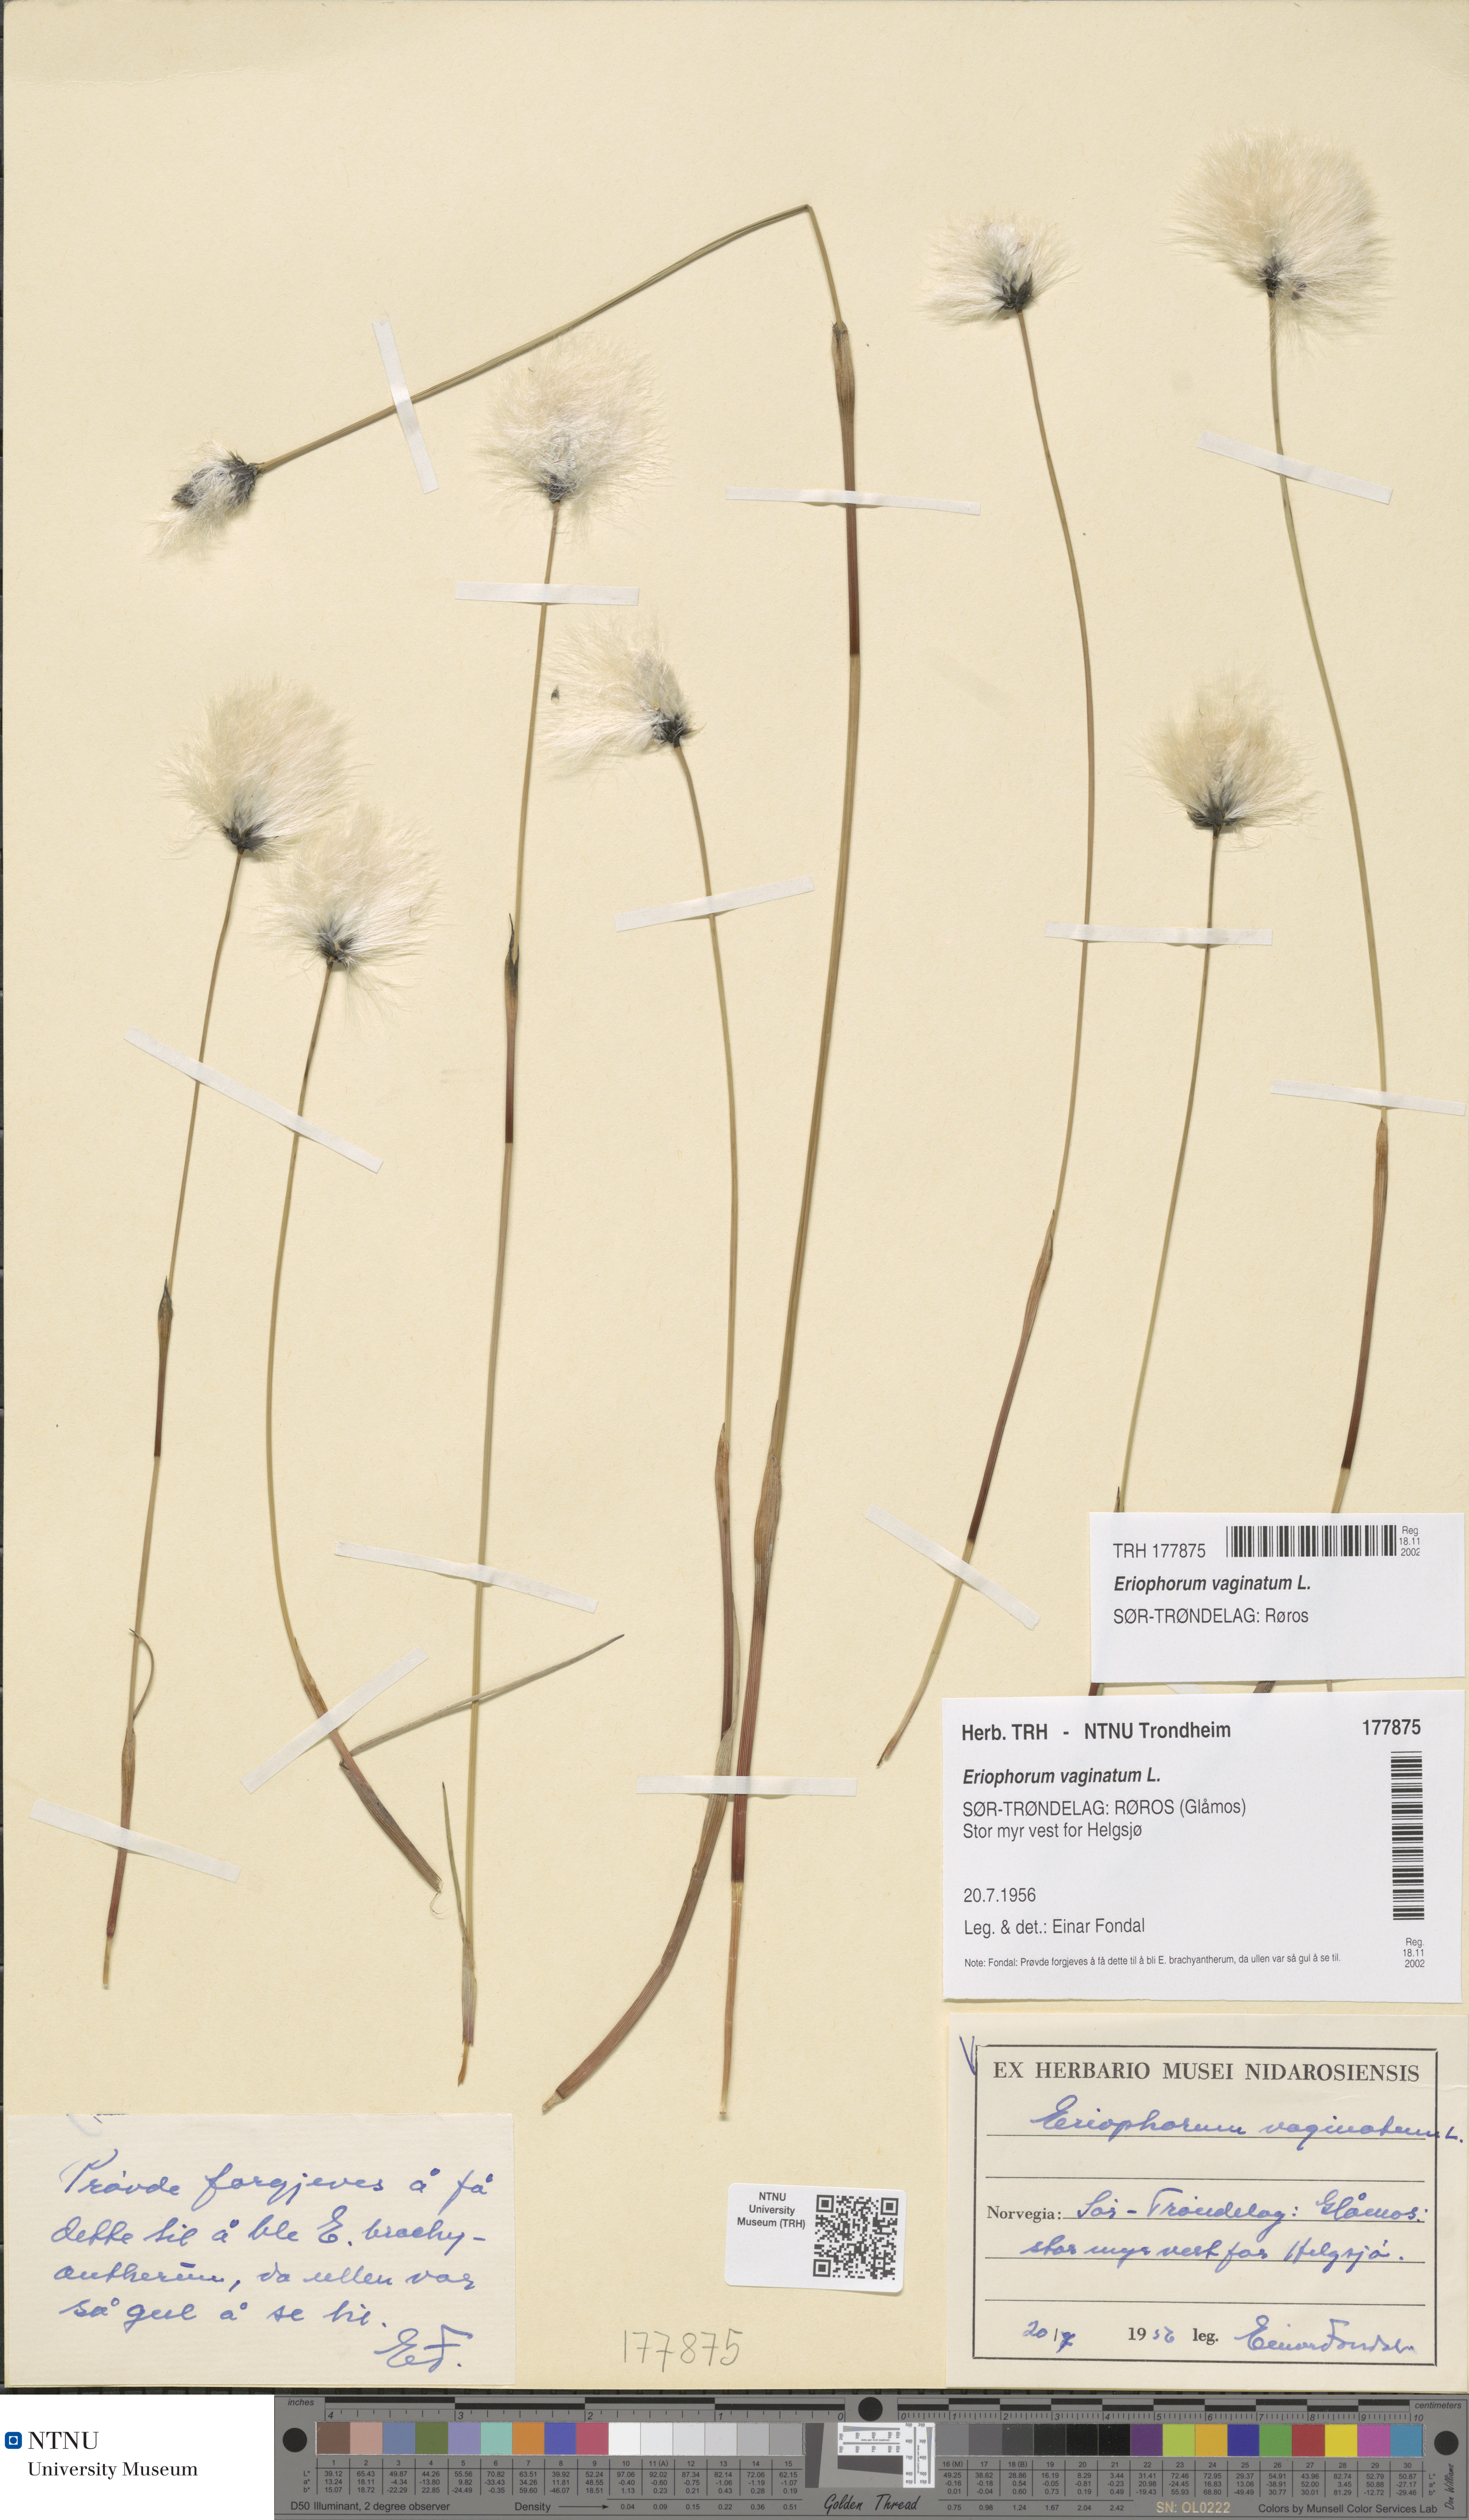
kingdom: Plantae
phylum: Tracheophyta
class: Liliopsida
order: Poales
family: Cyperaceae
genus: Eriophorum
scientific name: Eriophorum vaginatum
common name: Hare's-tail cottongrass
